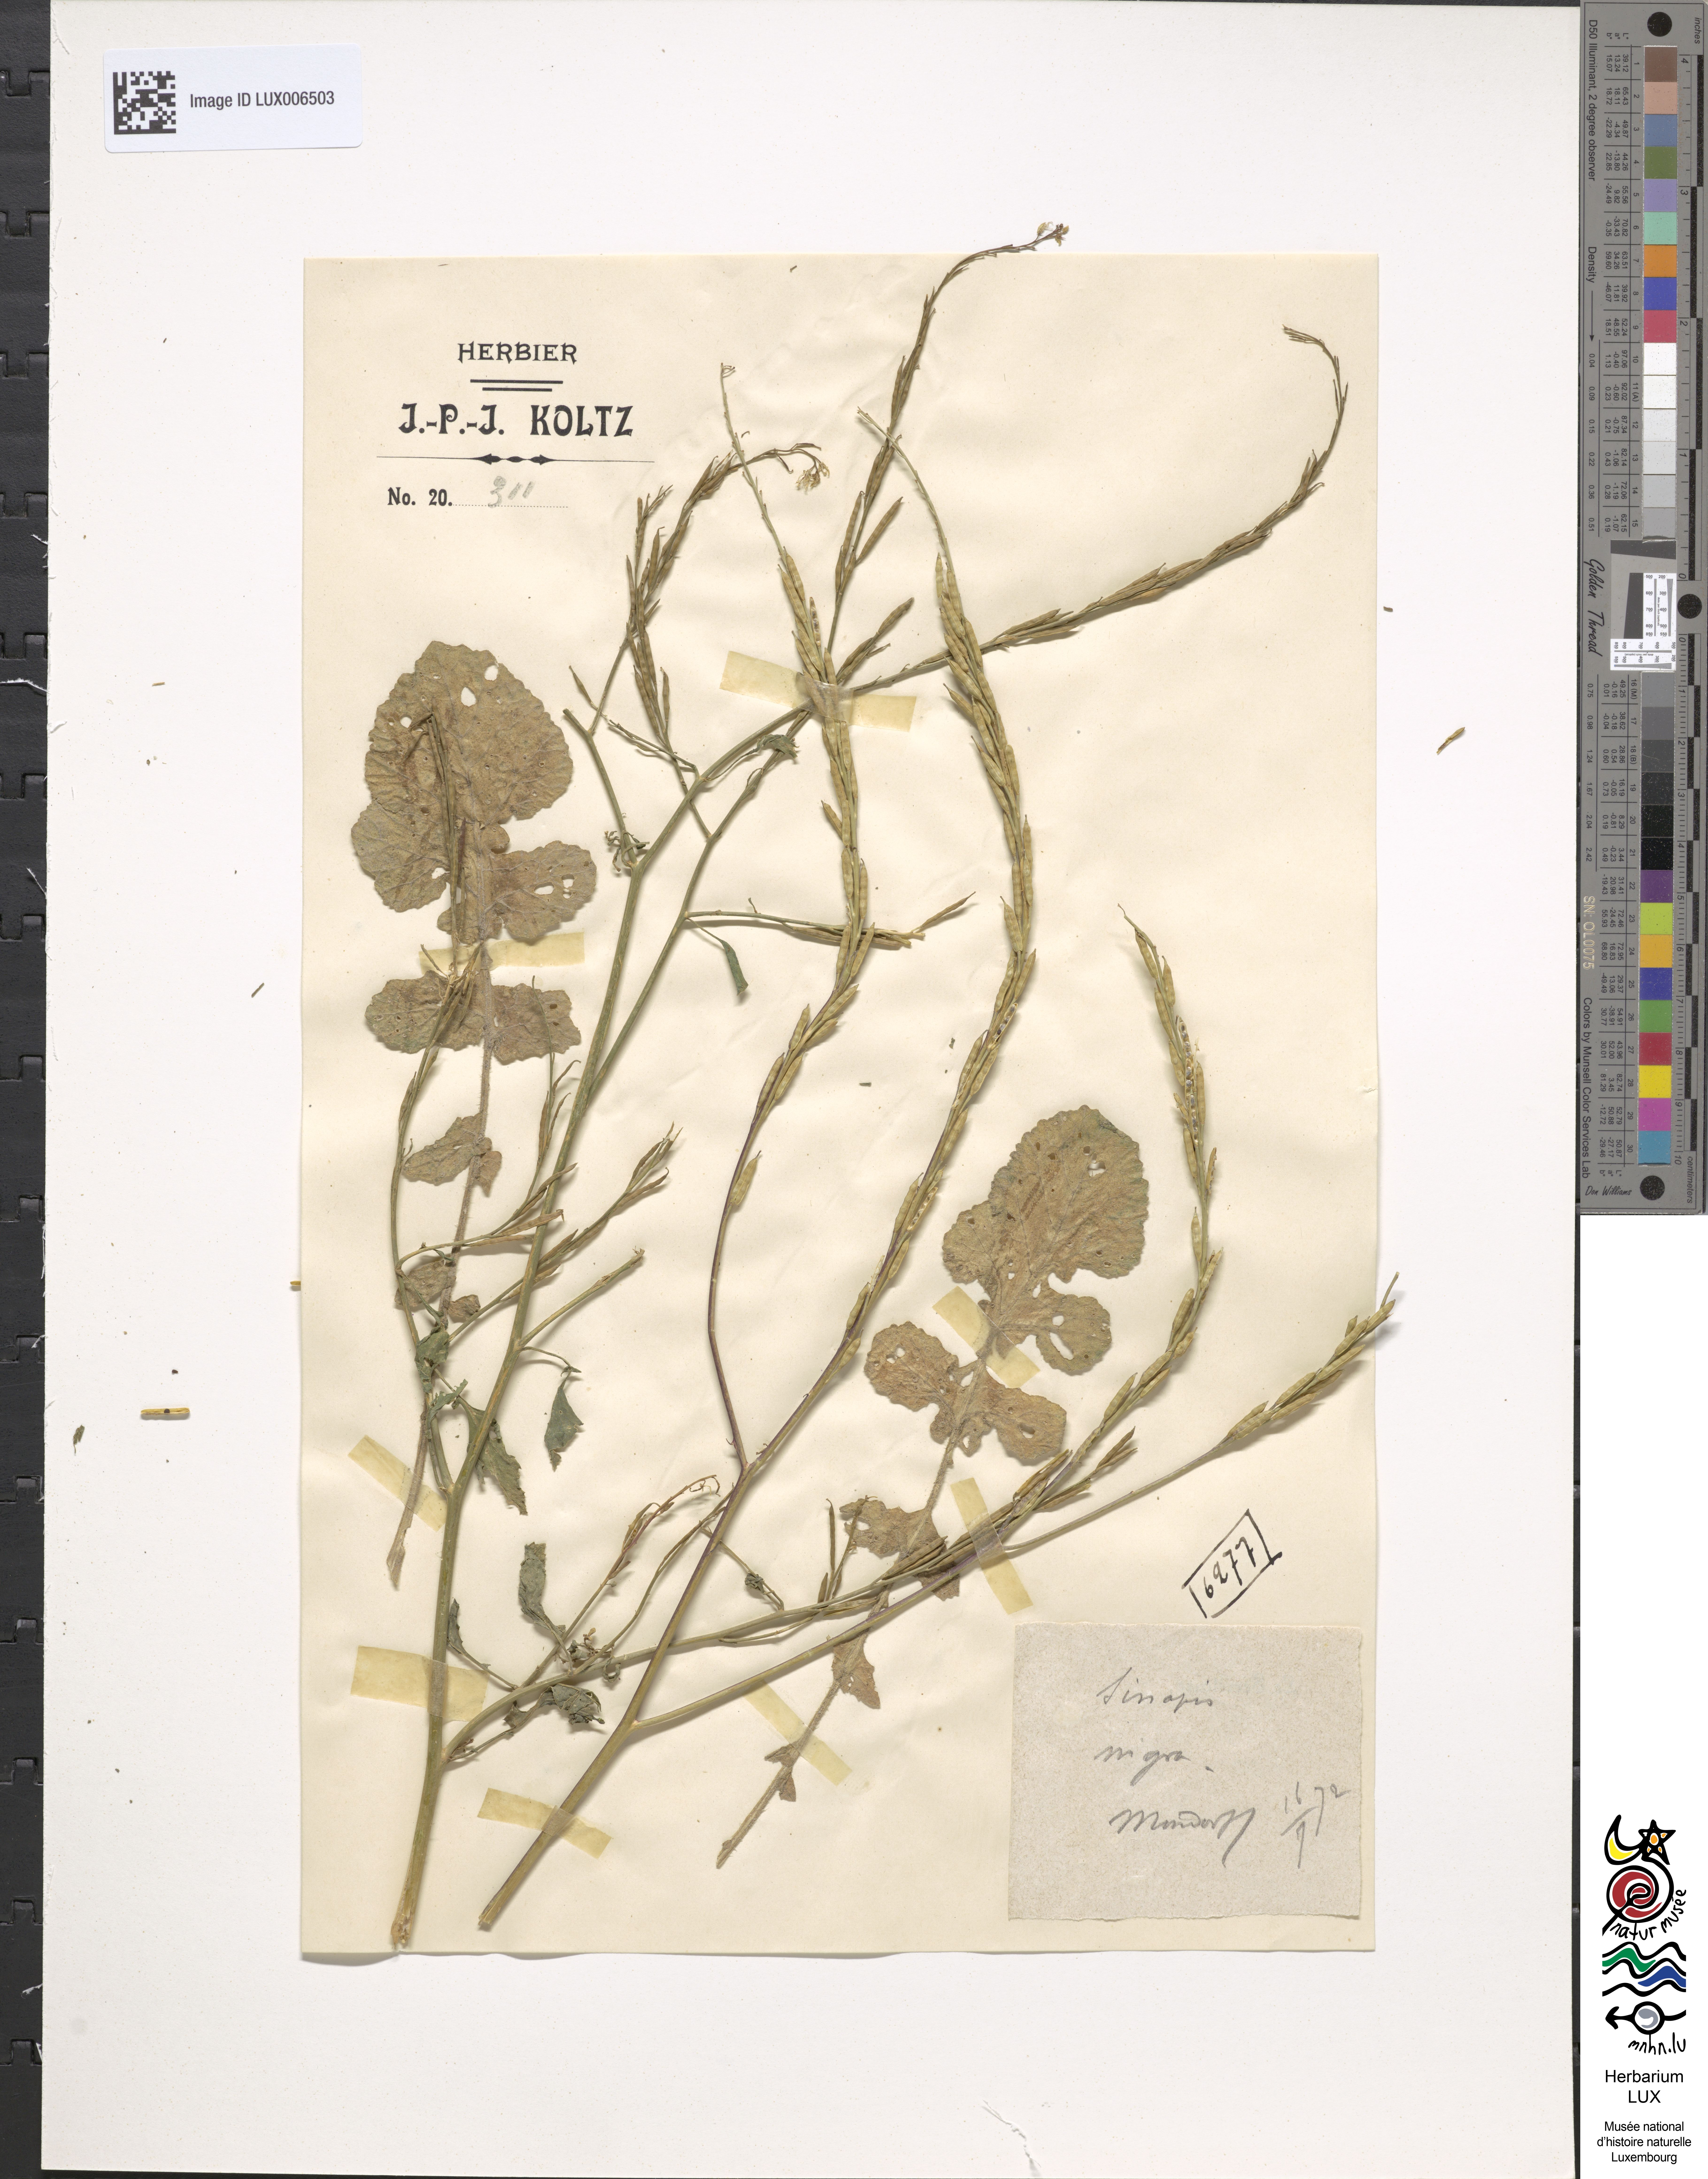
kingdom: Plantae
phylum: Tracheophyta
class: Magnoliopsida
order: Brassicales
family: Brassicaceae
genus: Brassica
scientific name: Brassica nigra
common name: Black mustard
